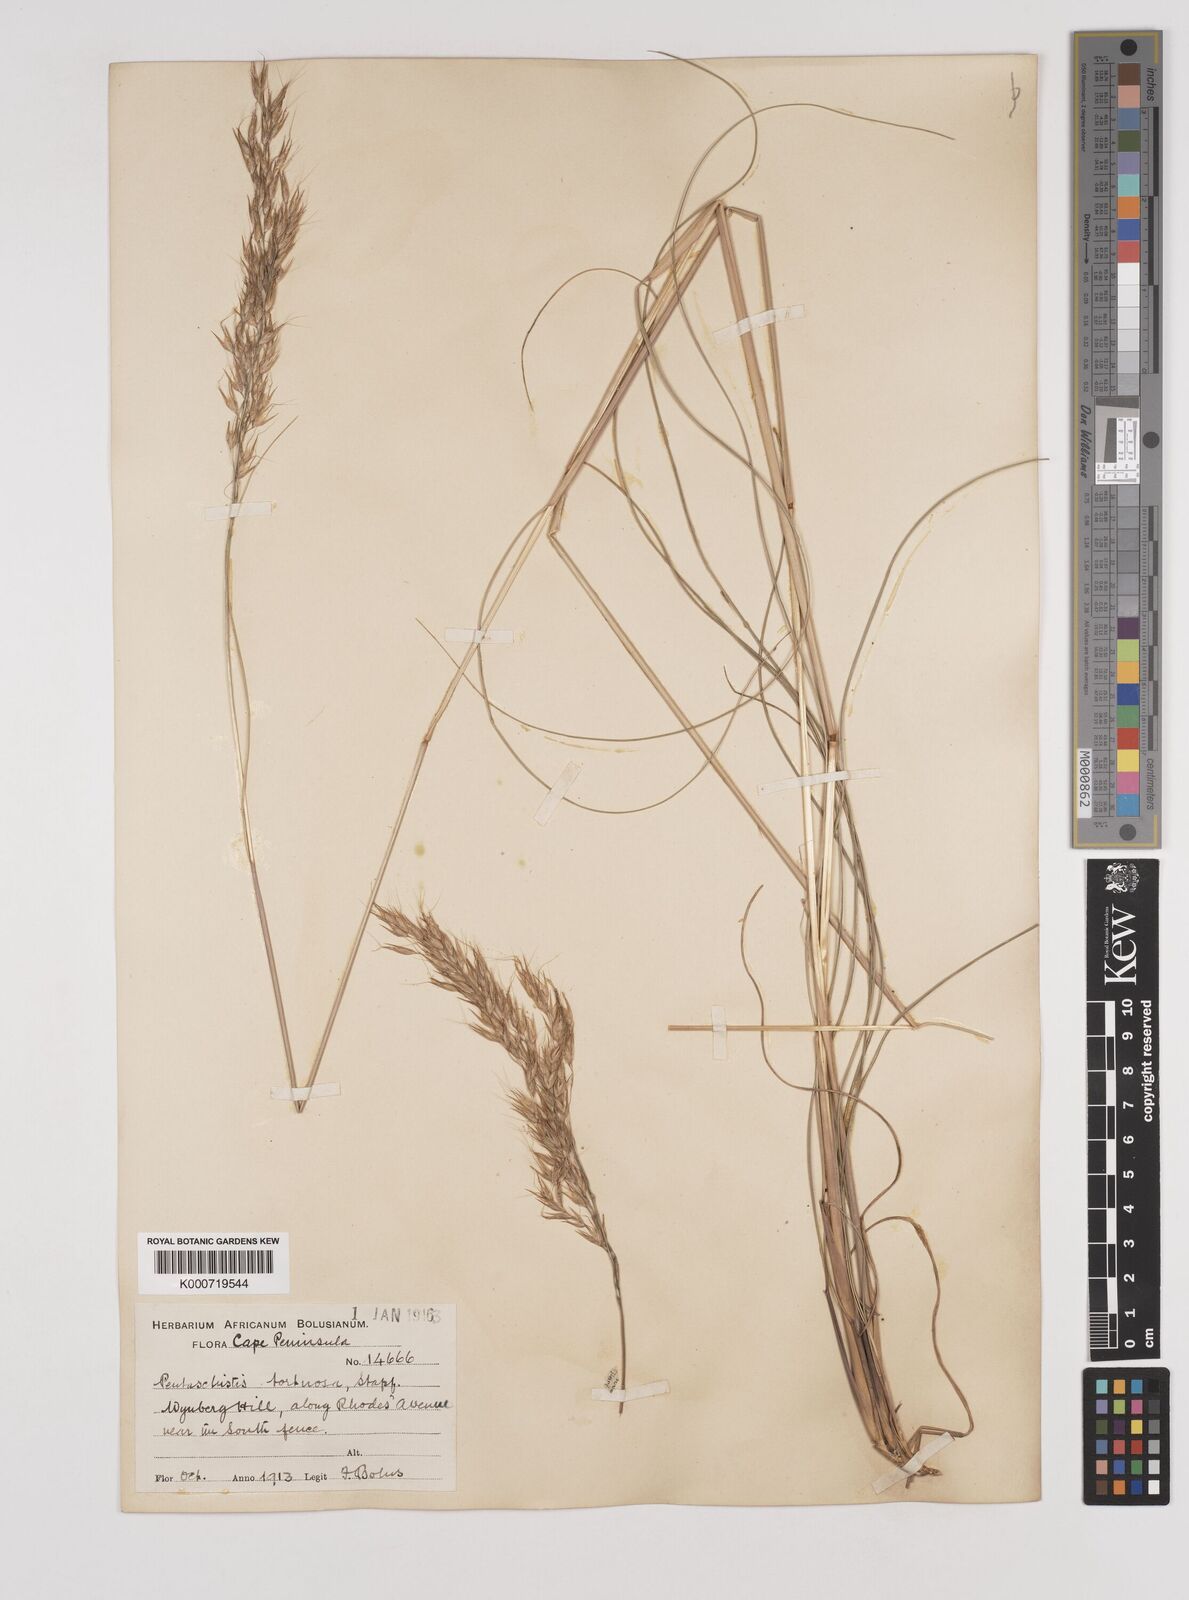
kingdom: Plantae
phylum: Tracheophyta
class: Liliopsida
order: Poales
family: Poaceae
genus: Pentameris
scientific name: Pentameris tortuosa
